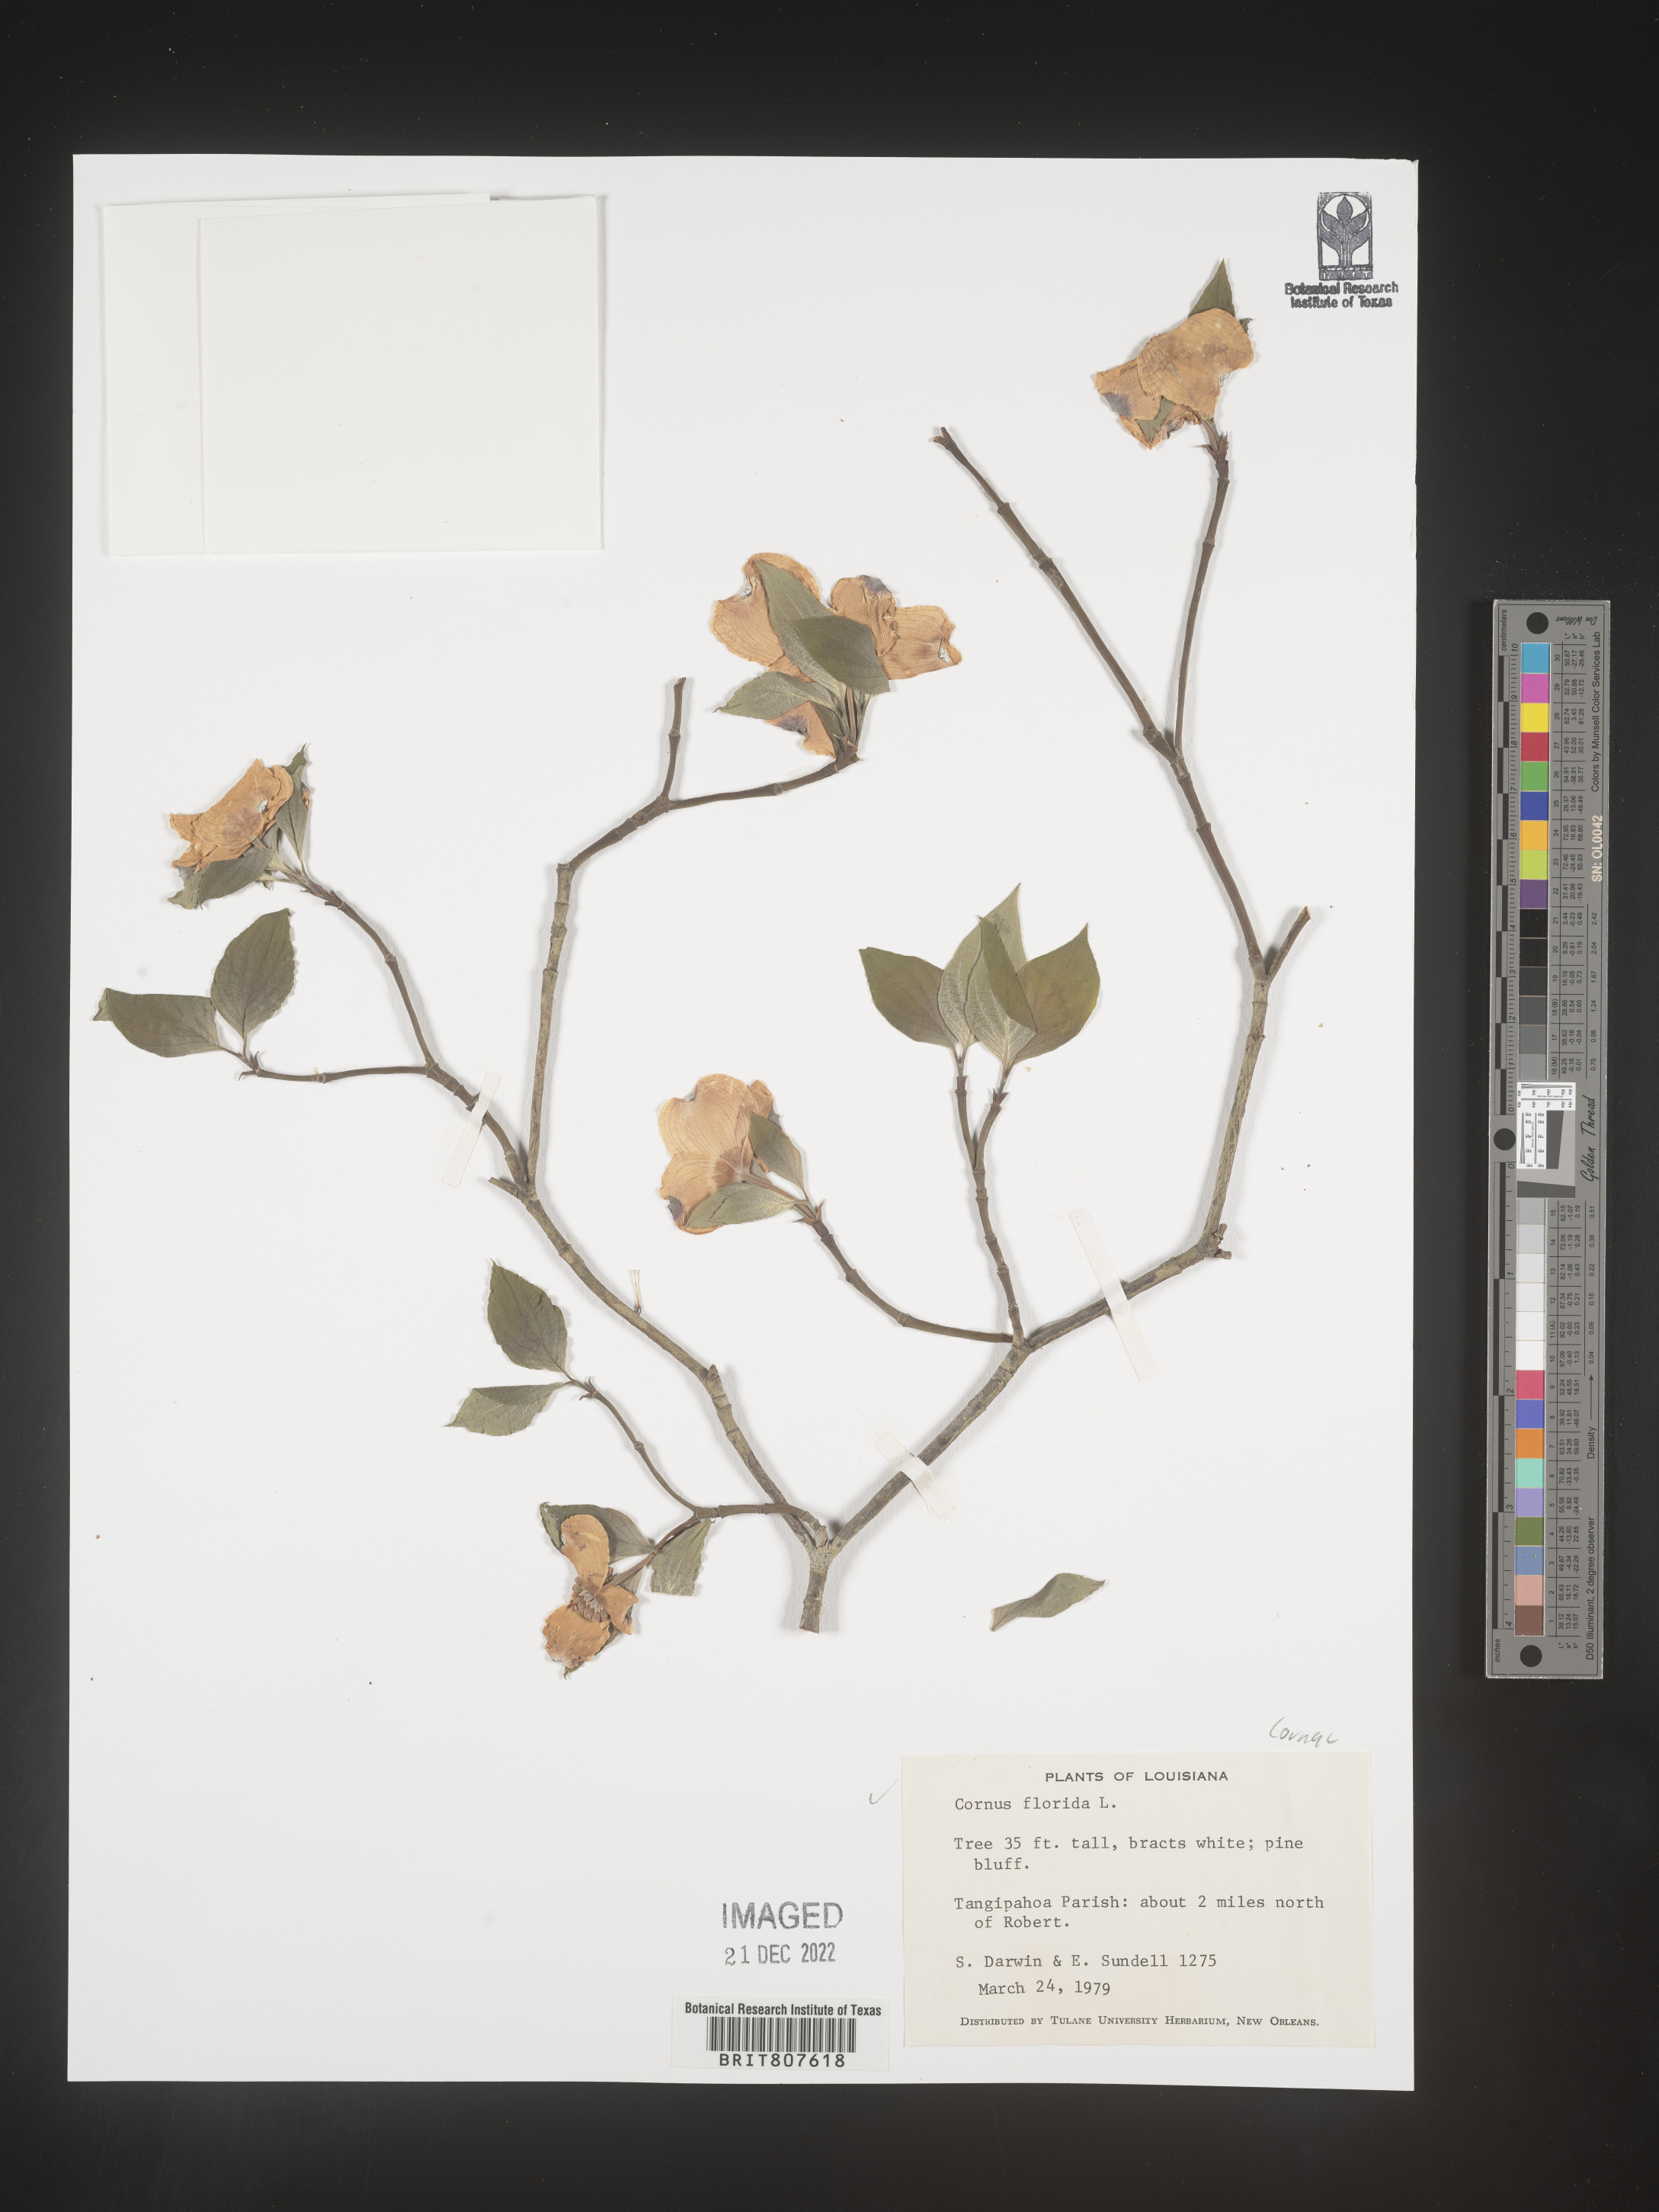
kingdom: Plantae
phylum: Tracheophyta
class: Magnoliopsida
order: Cornales
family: Cornaceae
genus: Cornus
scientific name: Cornus florida
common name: Flowering dogwood
